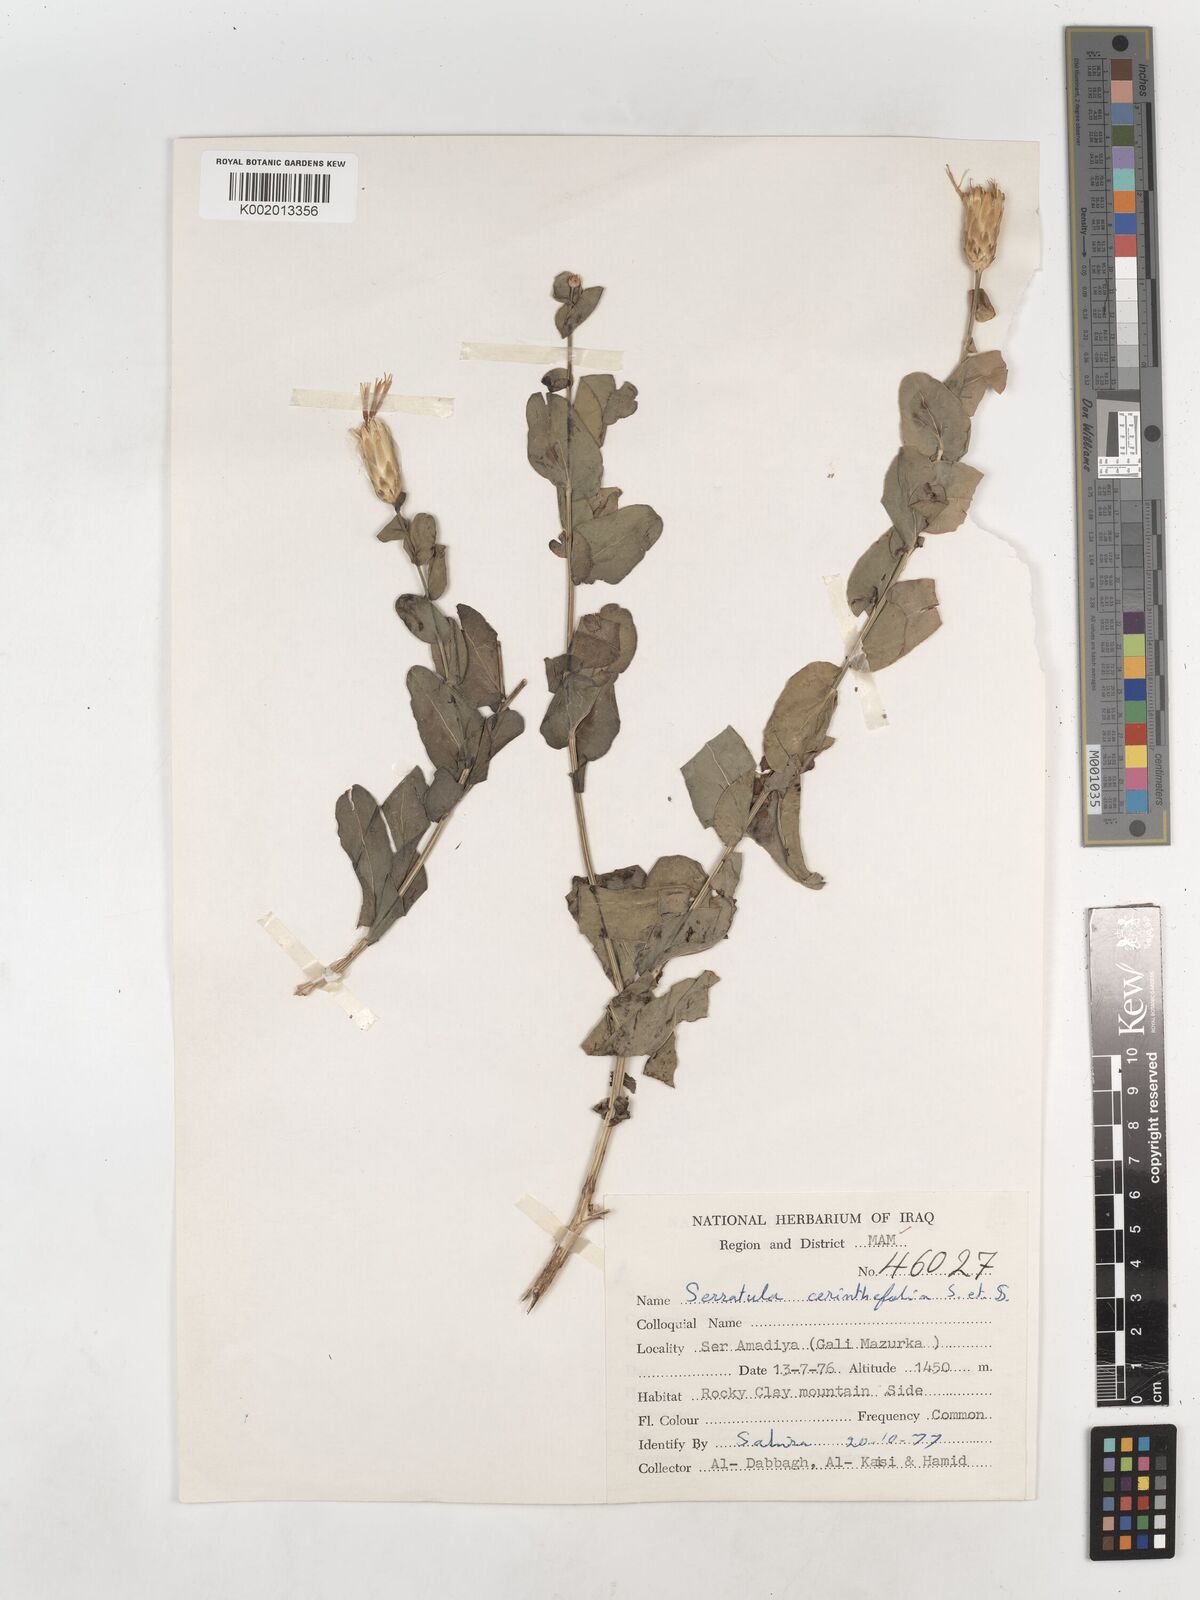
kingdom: Plantae
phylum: Tracheophyta
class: Magnoliopsida
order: Asterales
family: Asteraceae
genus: Klasea
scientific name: Klasea cerinthifolia
